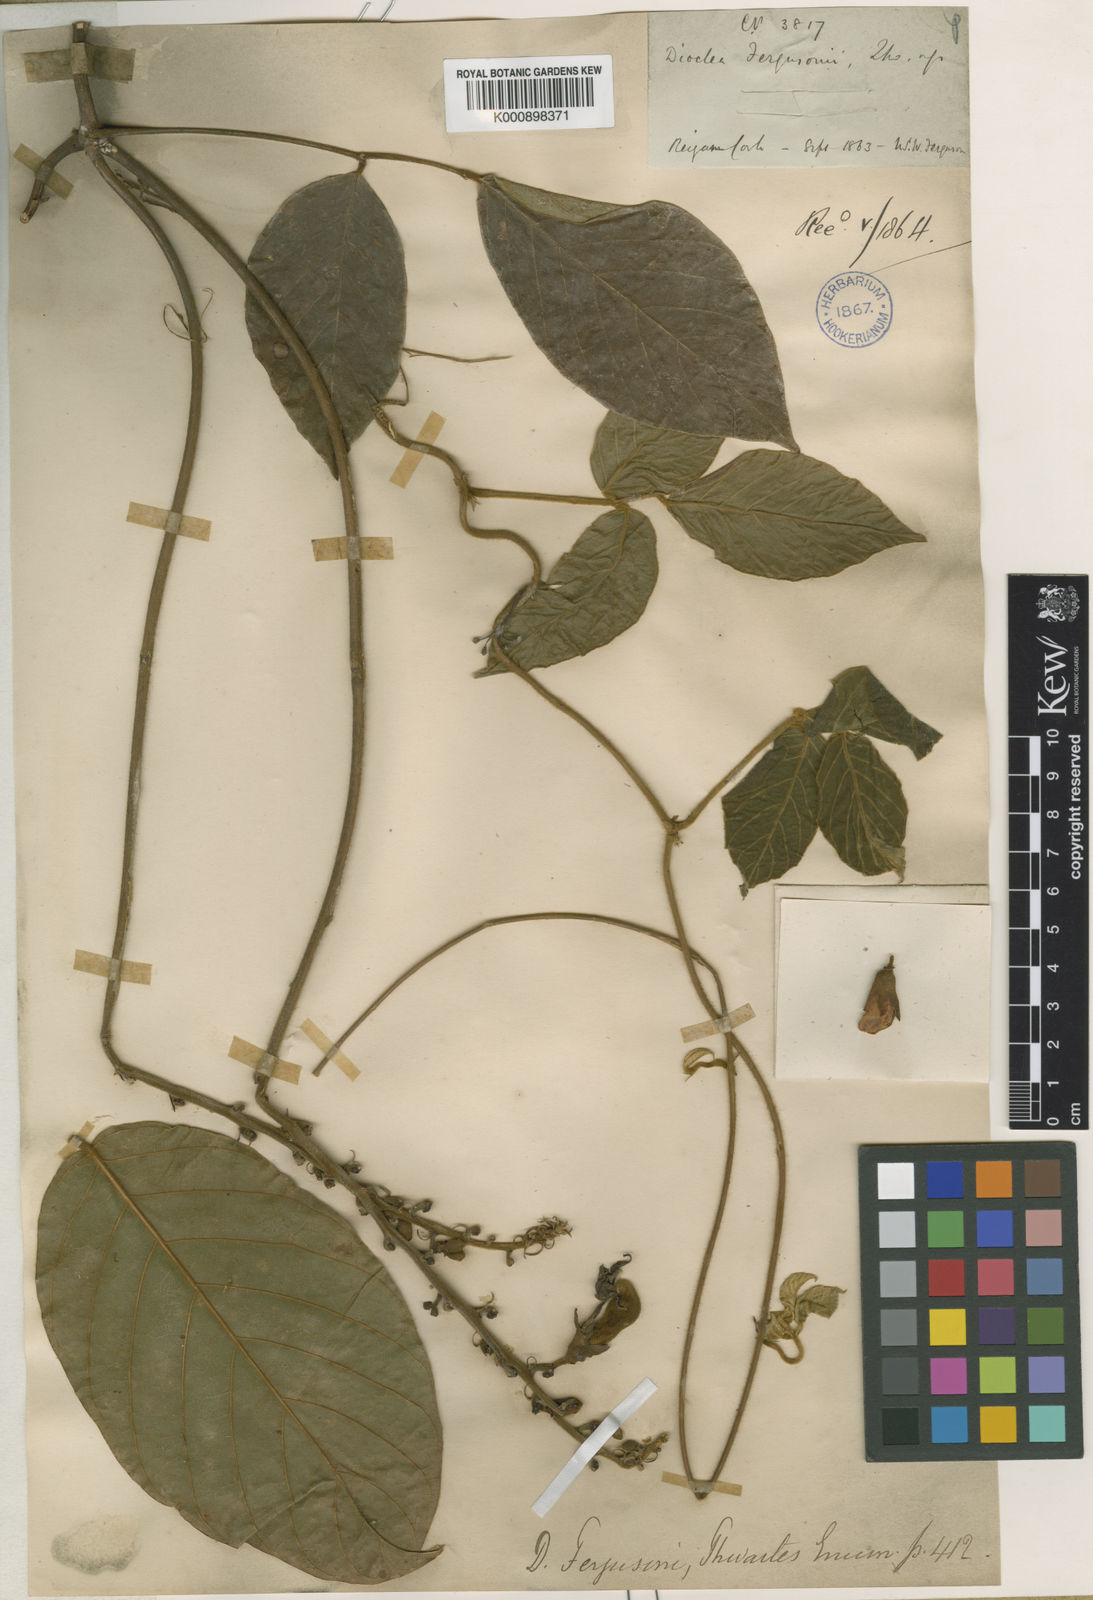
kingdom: Plantae
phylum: Tracheophyta
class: Magnoliopsida
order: Fabales
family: Fabaceae
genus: Macropsychanthus
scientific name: Macropsychanthus javanicus
